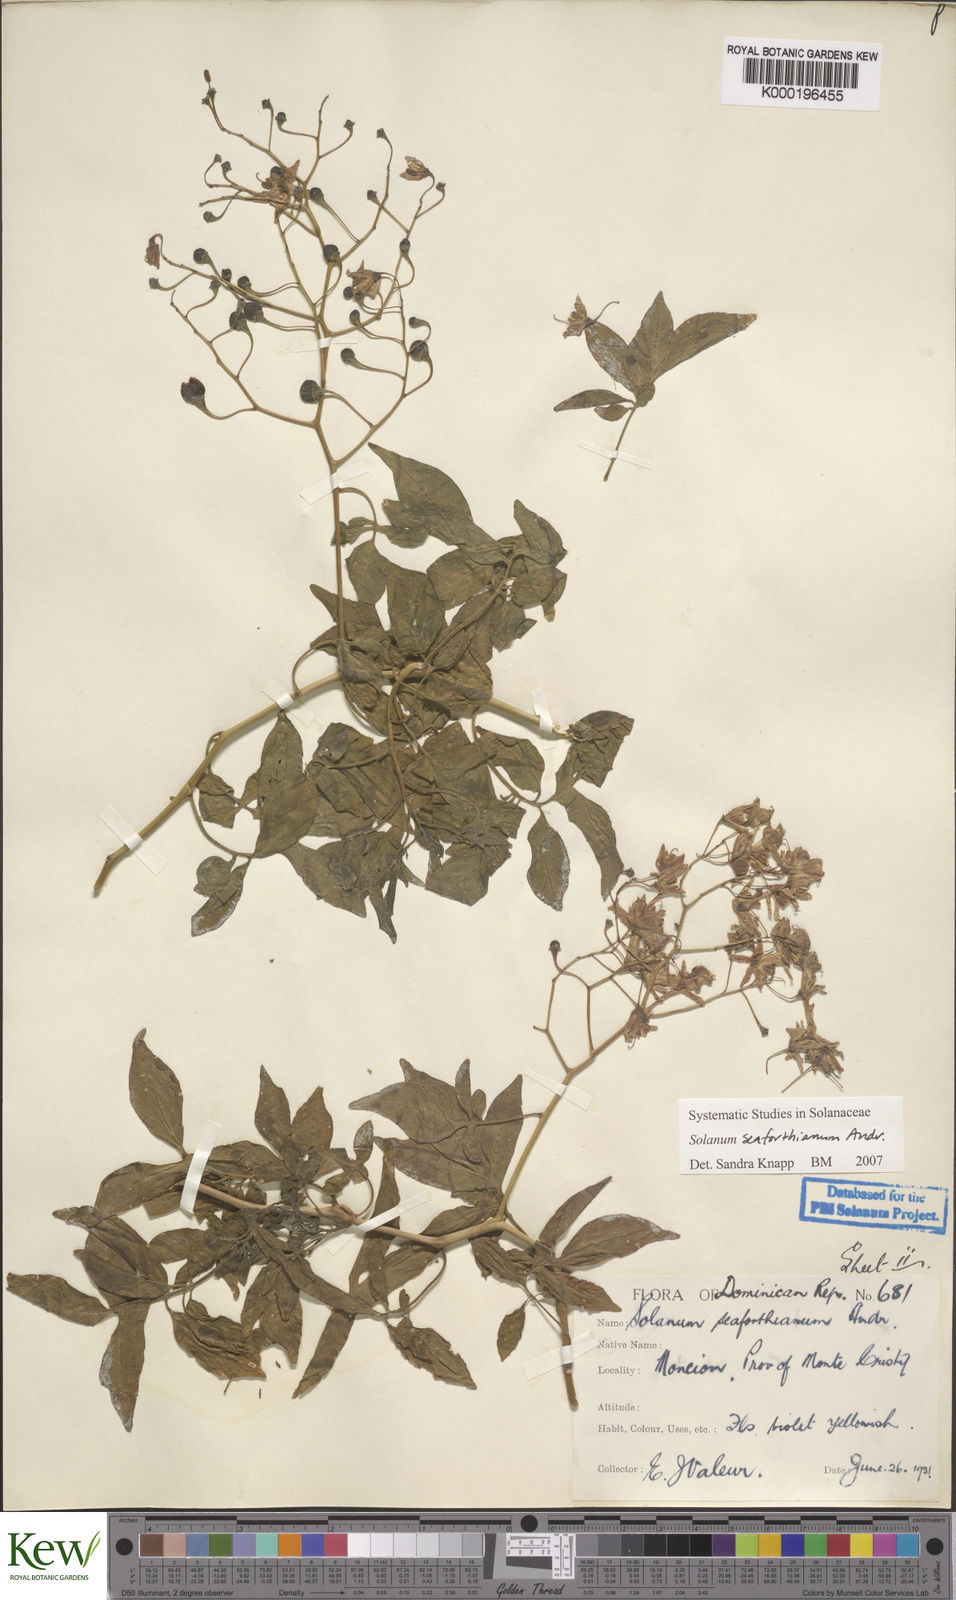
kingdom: Plantae
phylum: Tracheophyta
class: Magnoliopsida
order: Solanales
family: Solanaceae
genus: Solanum
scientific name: Solanum seaforthianum
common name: Brazilian nightshade
